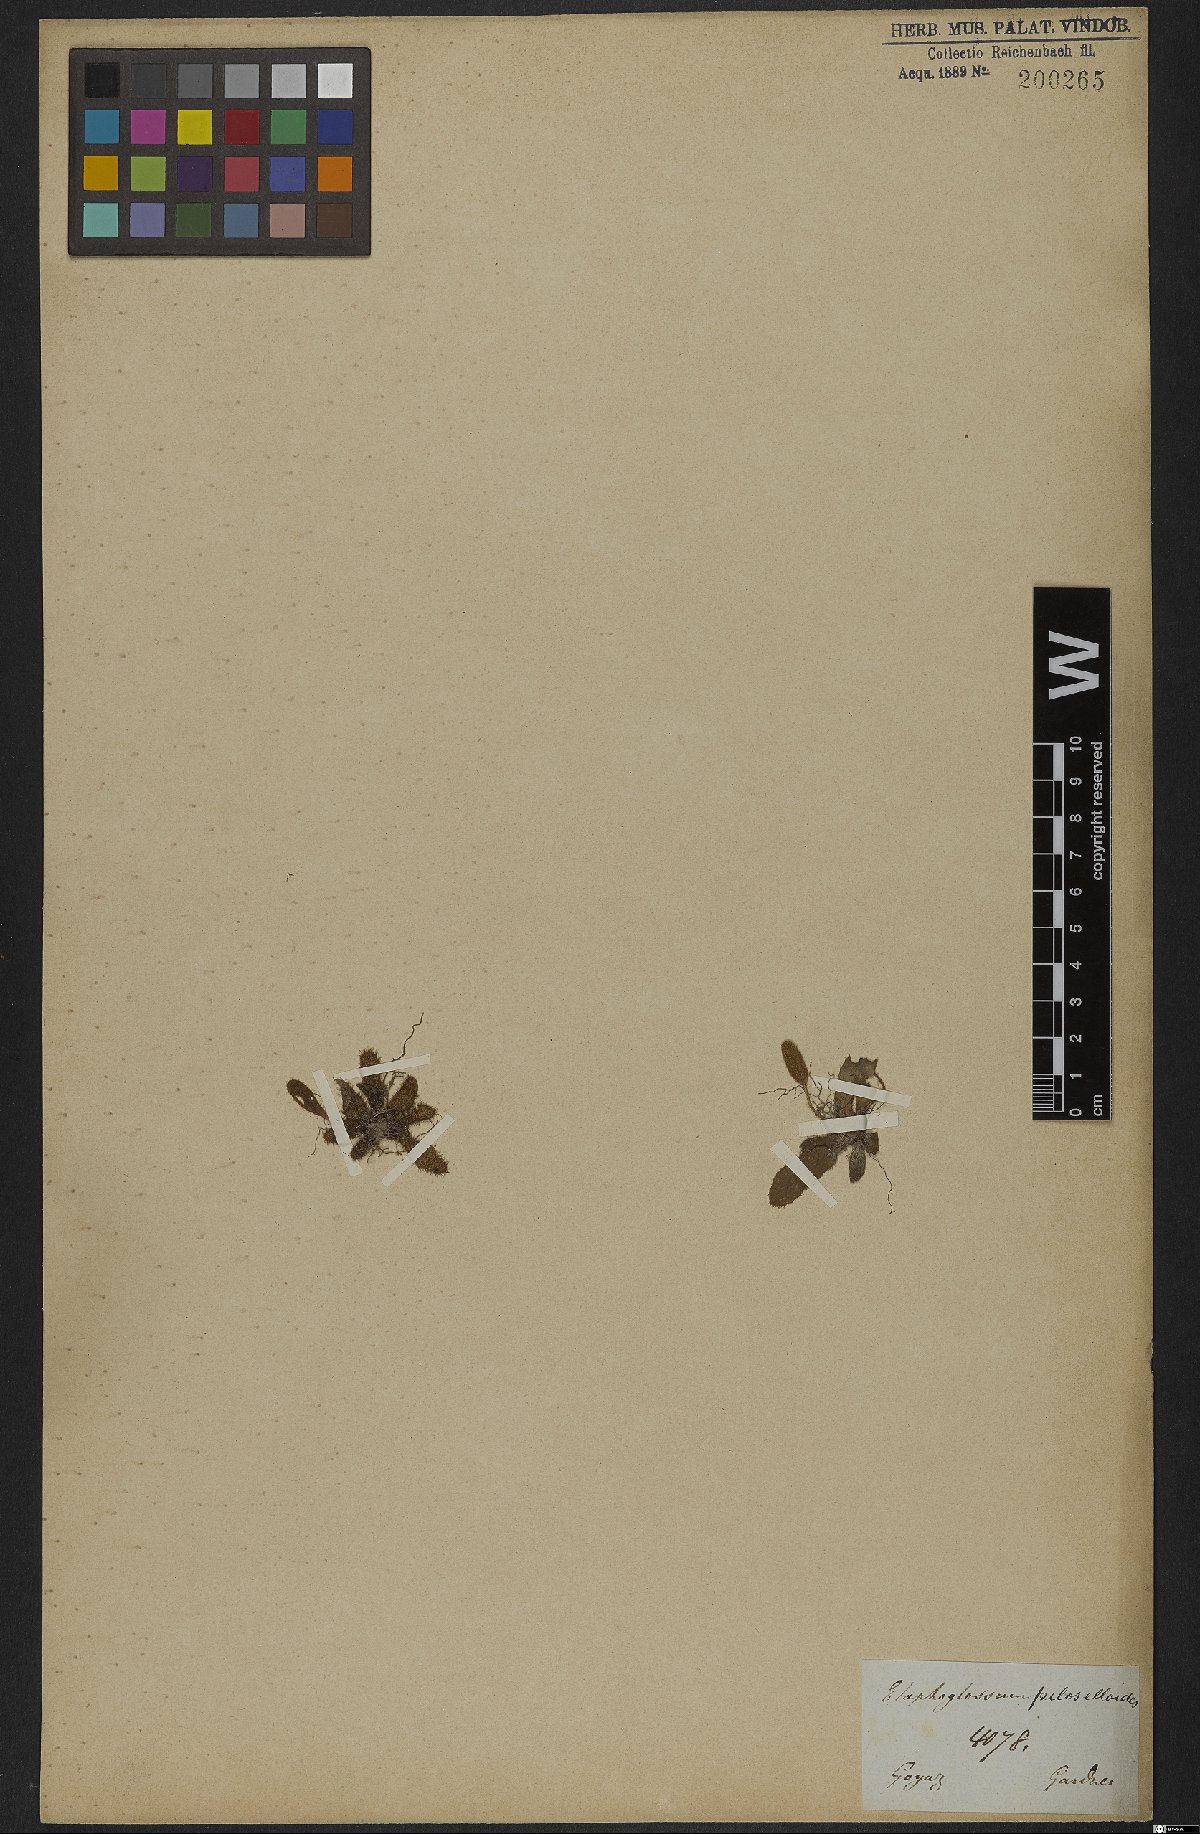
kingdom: Plantae
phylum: Tracheophyta
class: Polypodiopsida
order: Polypodiales
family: Dryopteridaceae
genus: Elaphoglossum
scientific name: Elaphoglossum spatulatum
